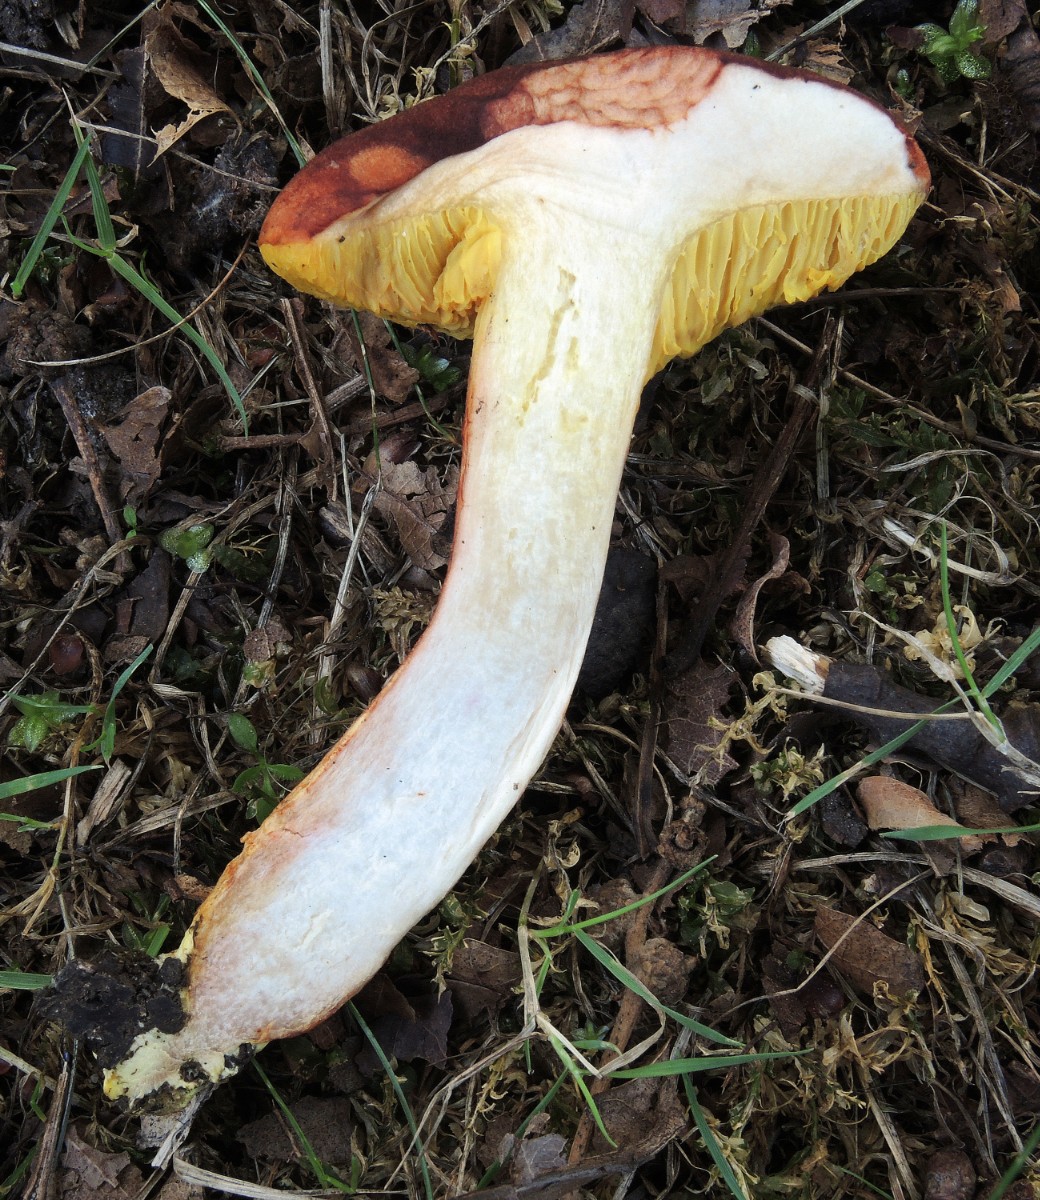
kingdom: Fungi
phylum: Basidiomycota
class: Agaricomycetes
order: Boletales
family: Boletaceae
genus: Xerocomus
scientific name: Xerocomus silwoodensis
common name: mahognibrun rørhat
